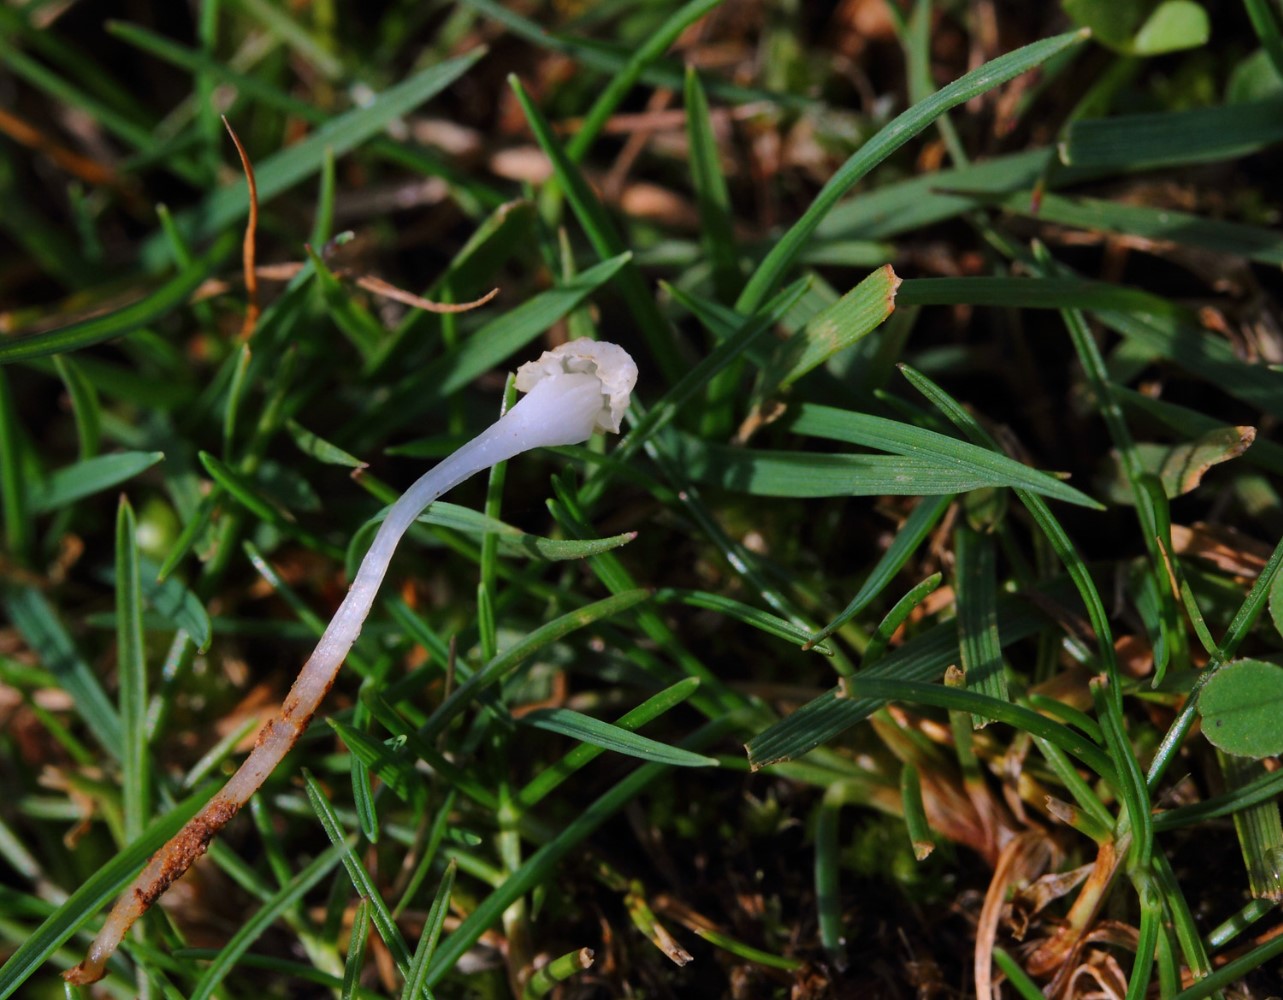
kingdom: Fungi
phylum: Basidiomycota
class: Agaricomycetes
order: Agaricales
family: Mycenaceae
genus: Hemimycena
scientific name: Hemimycena
